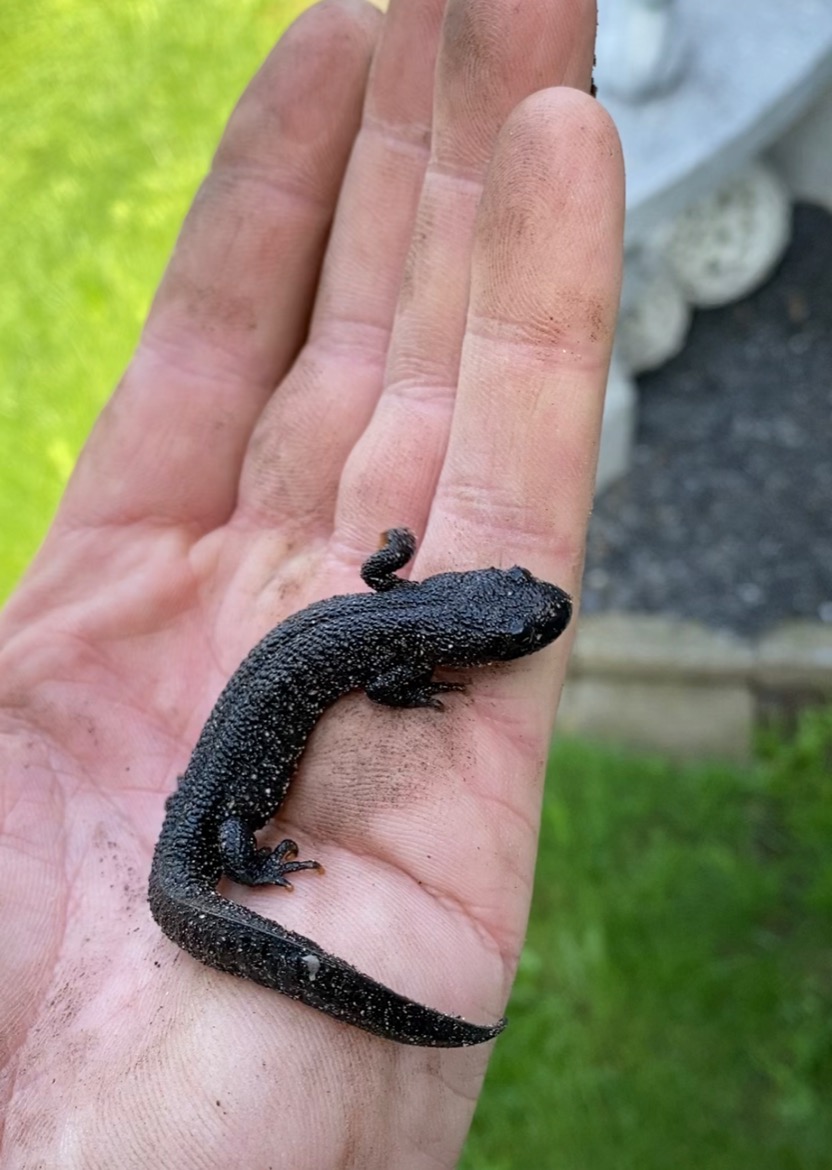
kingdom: Animalia
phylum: Chordata
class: Amphibia
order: Caudata
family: Salamandridae
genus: Triturus
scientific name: Triturus cristatus
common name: Stor vandsalamander
